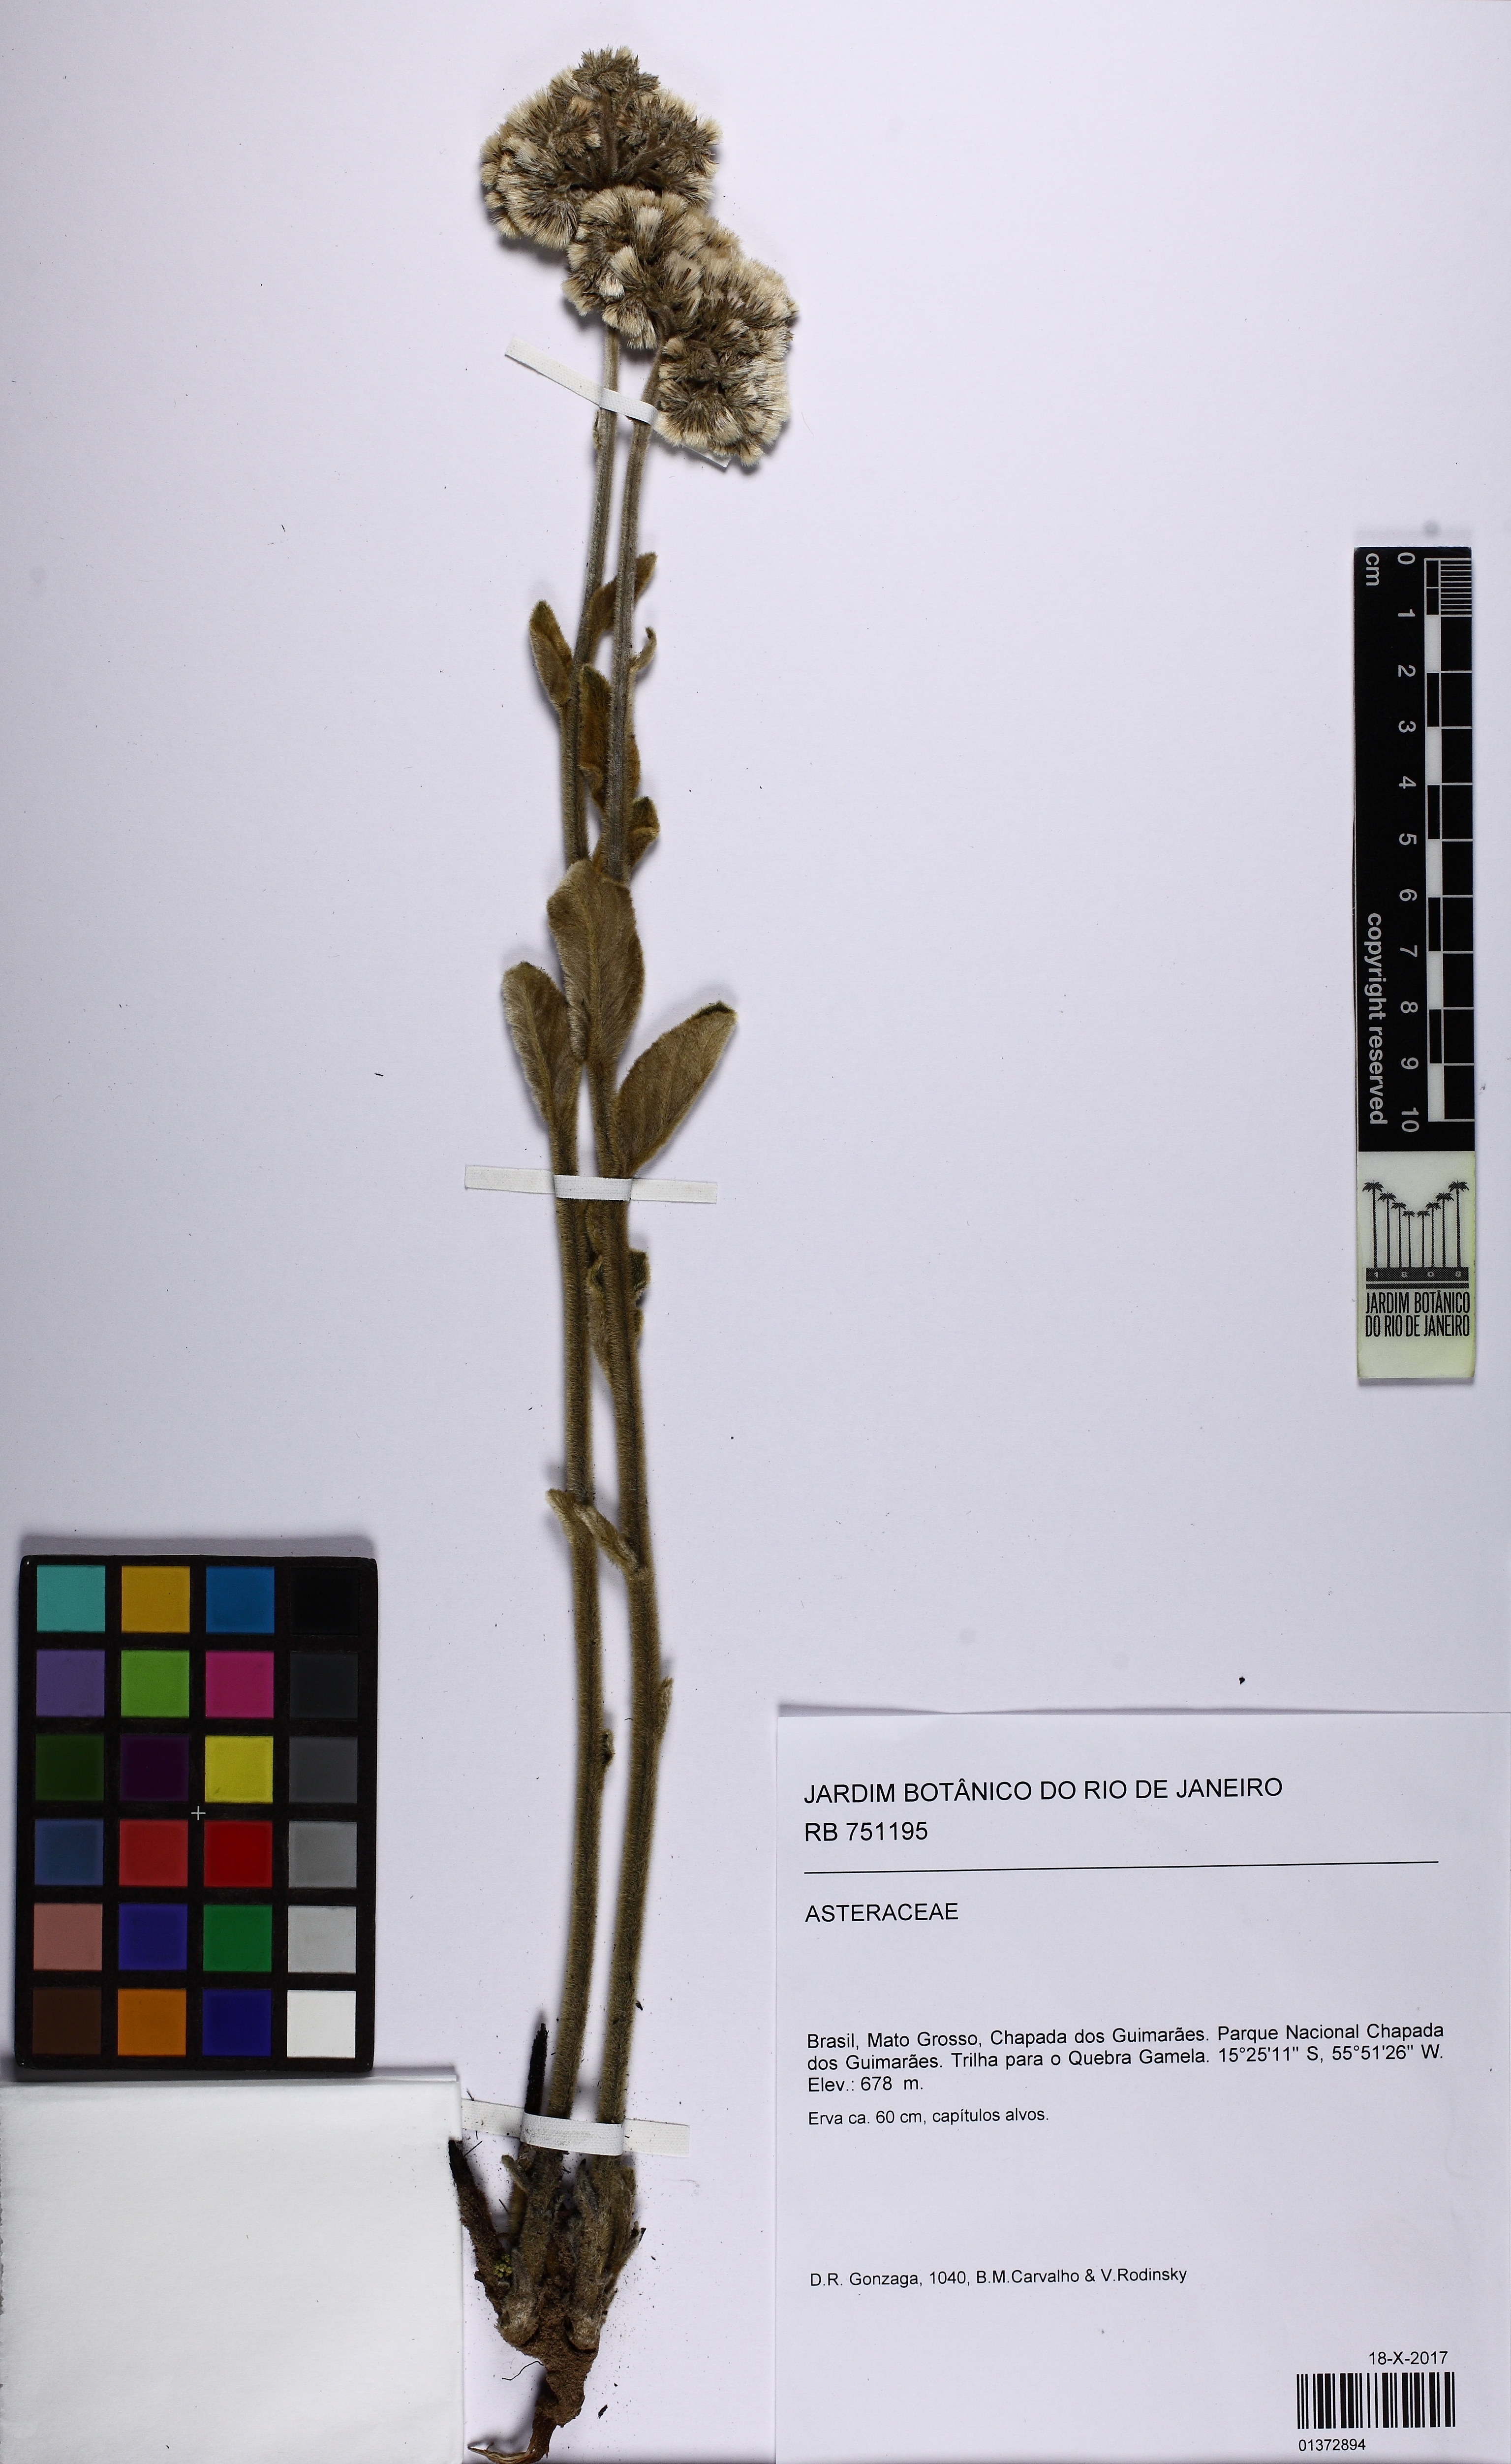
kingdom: Plantae
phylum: Tracheophyta
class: Magnoliopsida
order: Asterales
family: Asteraceae
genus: Chrysolaena
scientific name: Chrysolaena obovata
